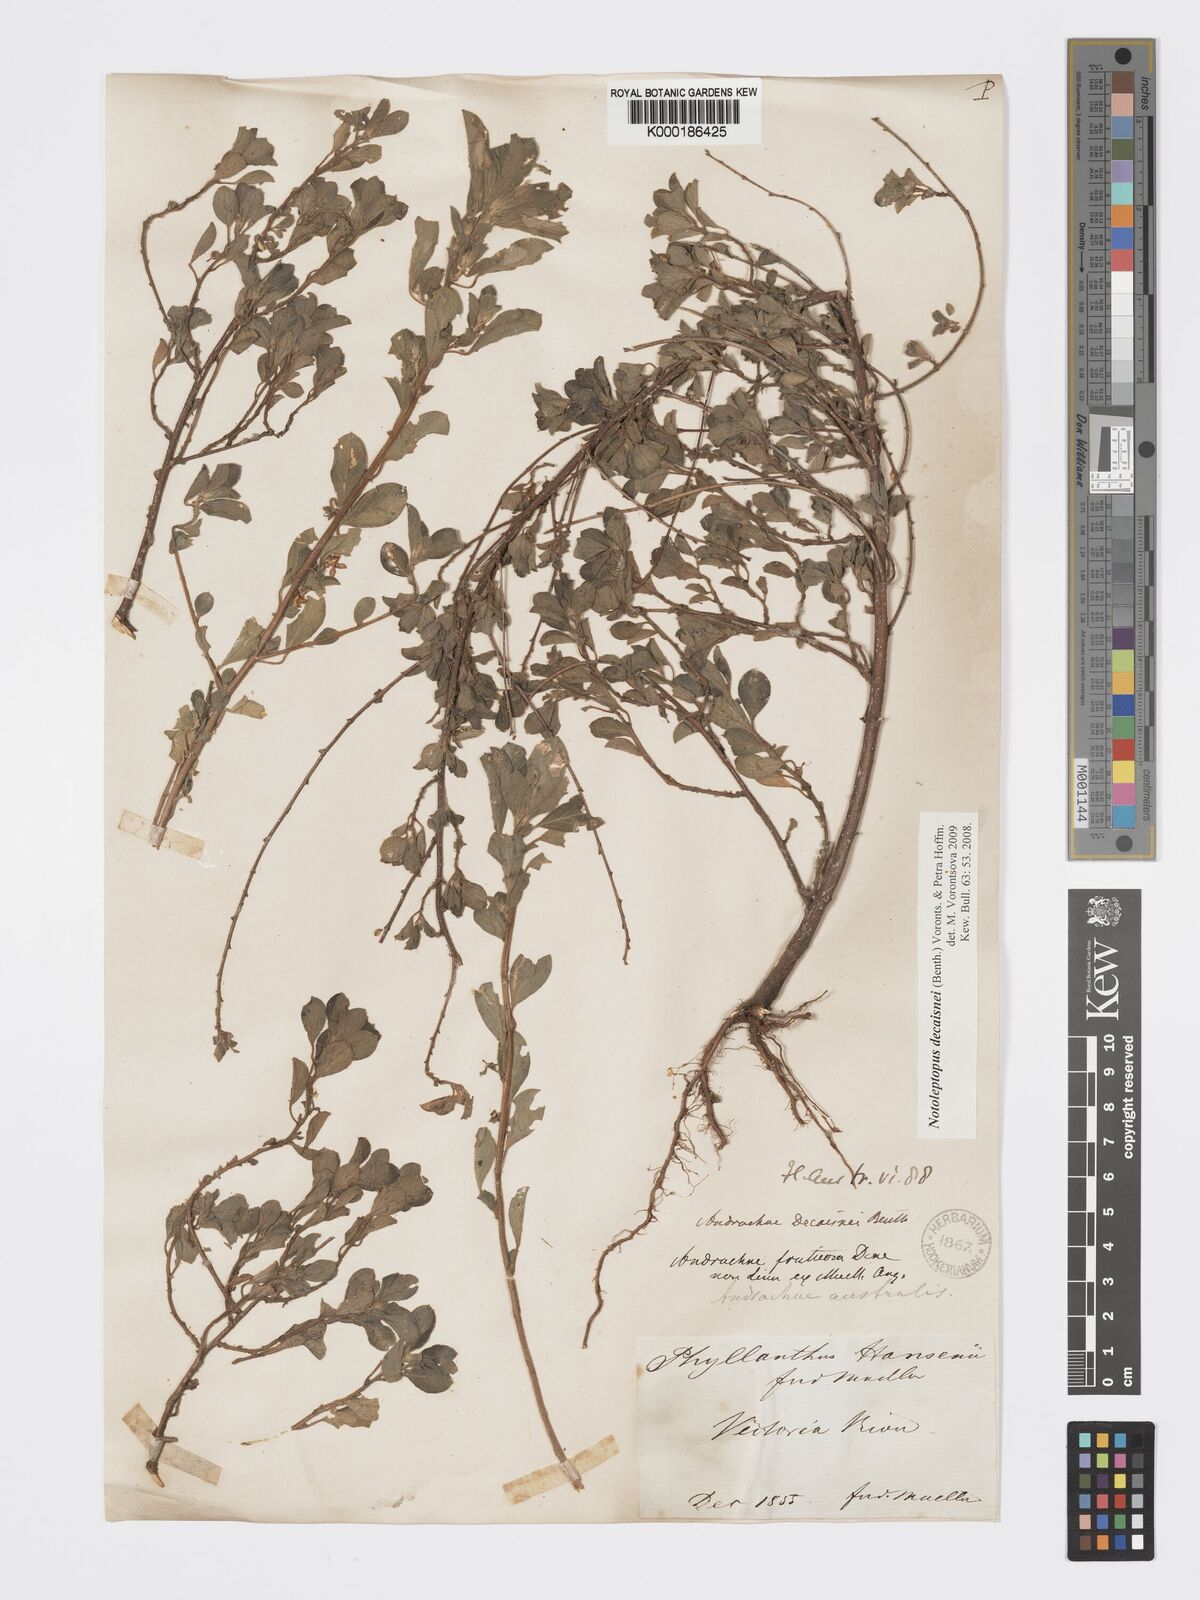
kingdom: Plantae
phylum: Tracheophyta
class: Magnoliopsida
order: Malpighiales
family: Phyllanthaceae
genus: Andrachne
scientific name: Andrachne
